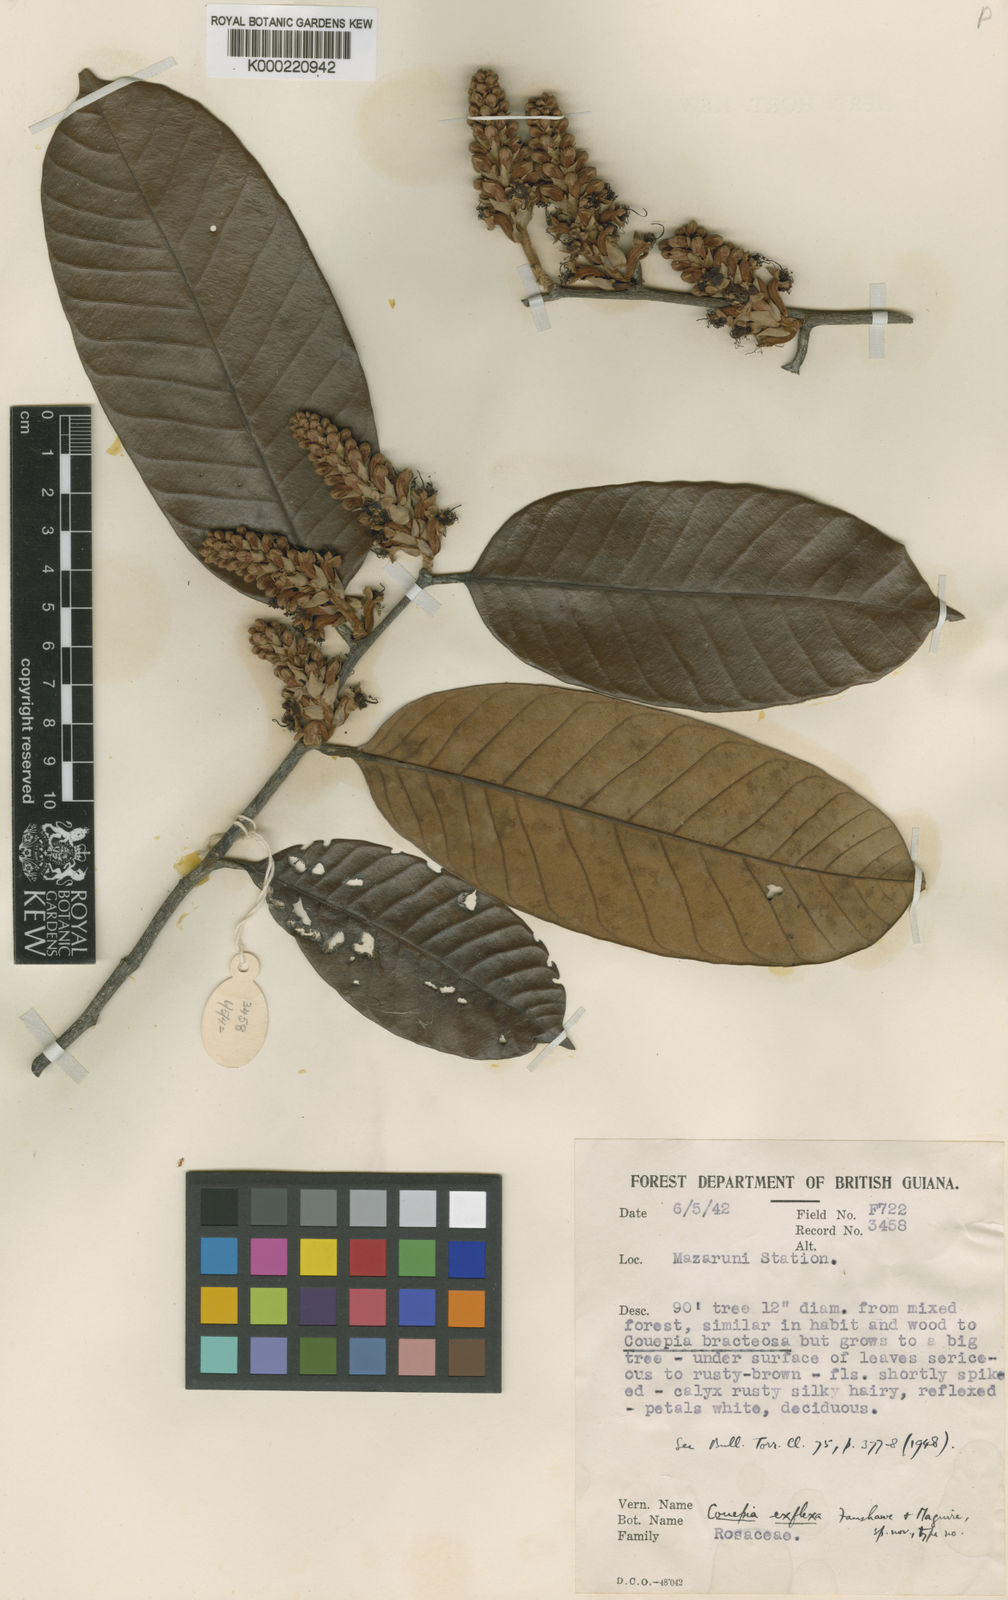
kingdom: Plantae
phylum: Tracheophyta
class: Magnoliopsida
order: Malpighiales
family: Chrysobalanaceae
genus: Couepia
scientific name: Couepia exflexa
